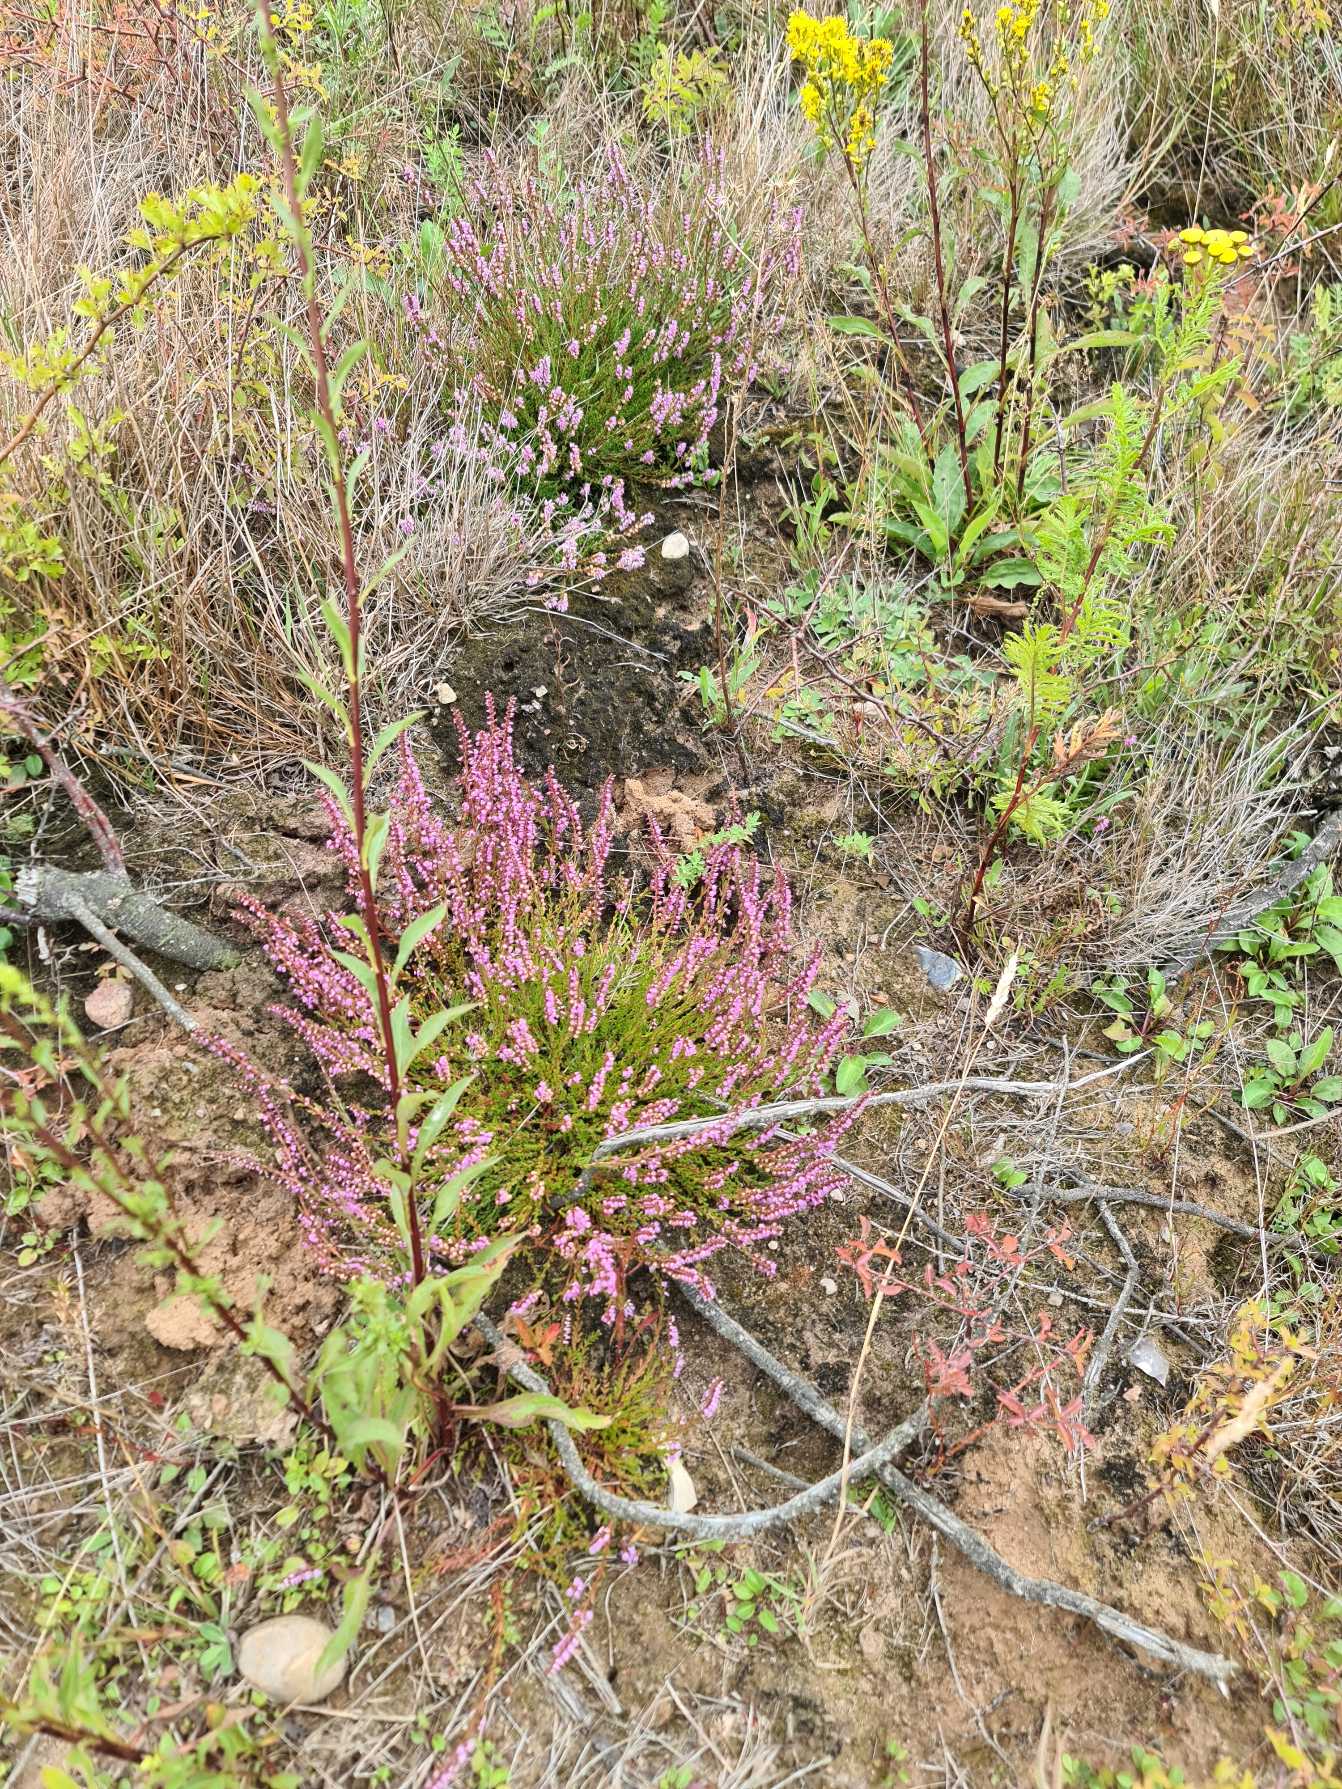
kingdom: Plantae
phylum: Tracheophyta
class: Magnoliopsida
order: Ericales
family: Ericaceae
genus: Calluna
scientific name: Calluna vulgaris
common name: Hedelyng
